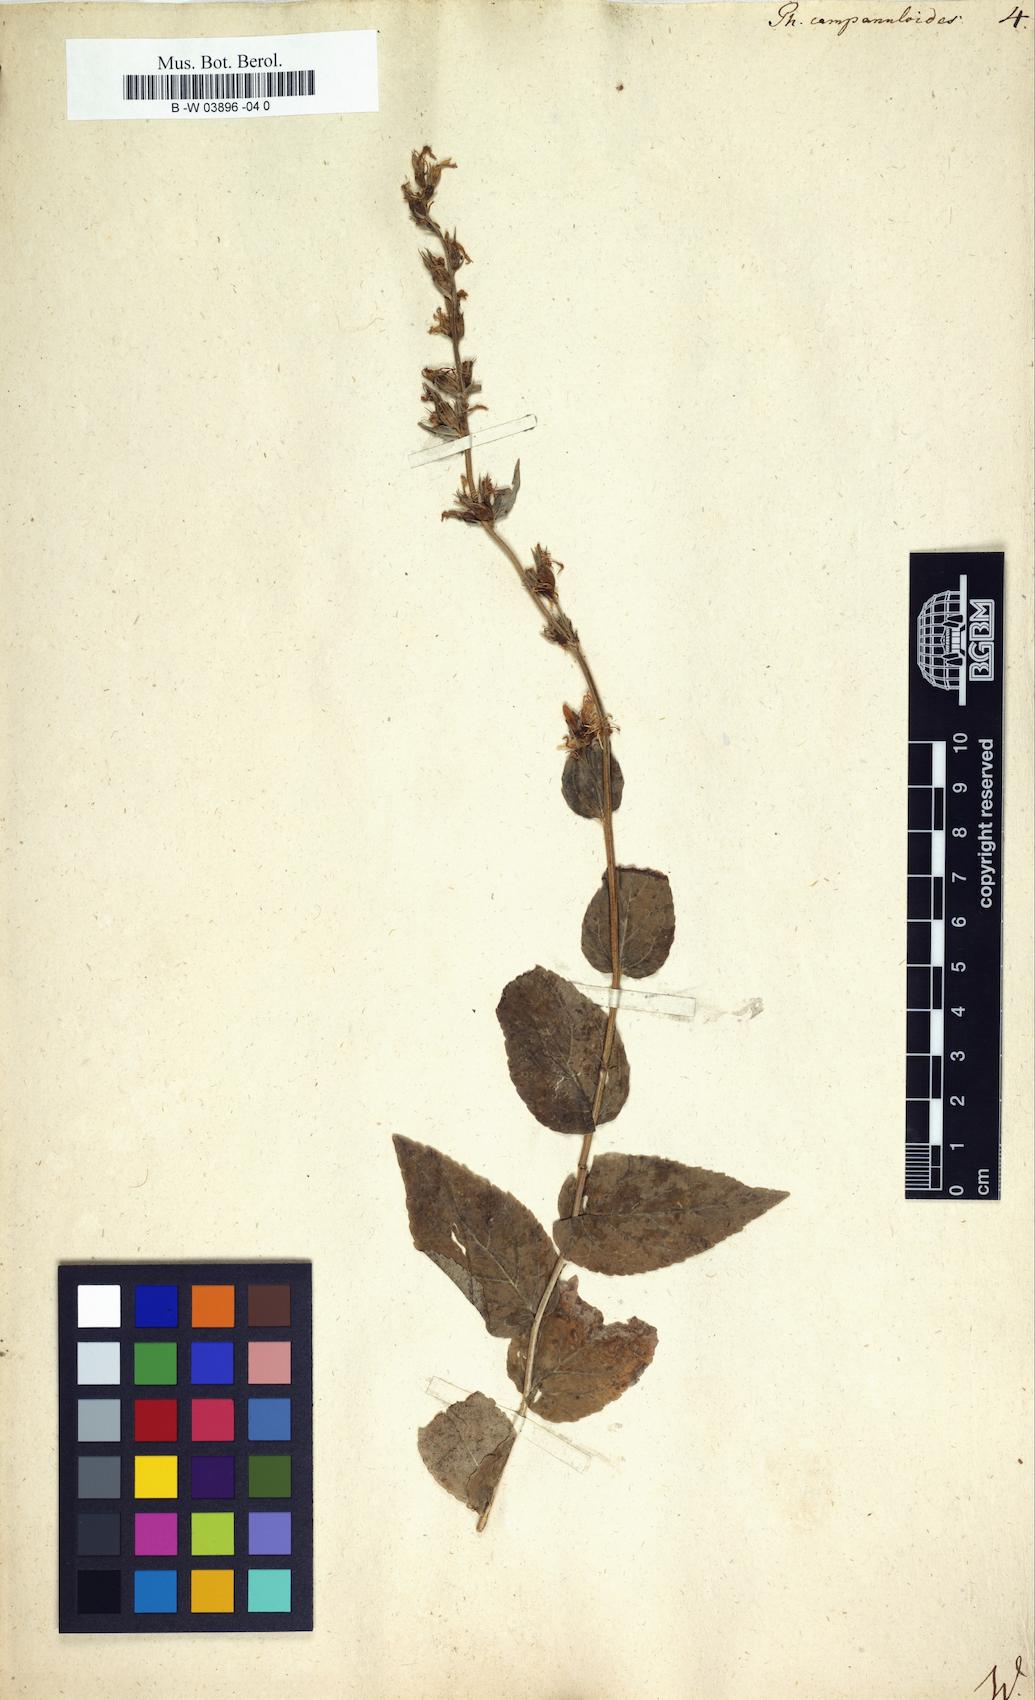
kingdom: Plantae
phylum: Tracheophyta
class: Magnoliopsida
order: Asterales
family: Campanulaceae
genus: Phyteuma
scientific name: Phyteuma campanuloides
